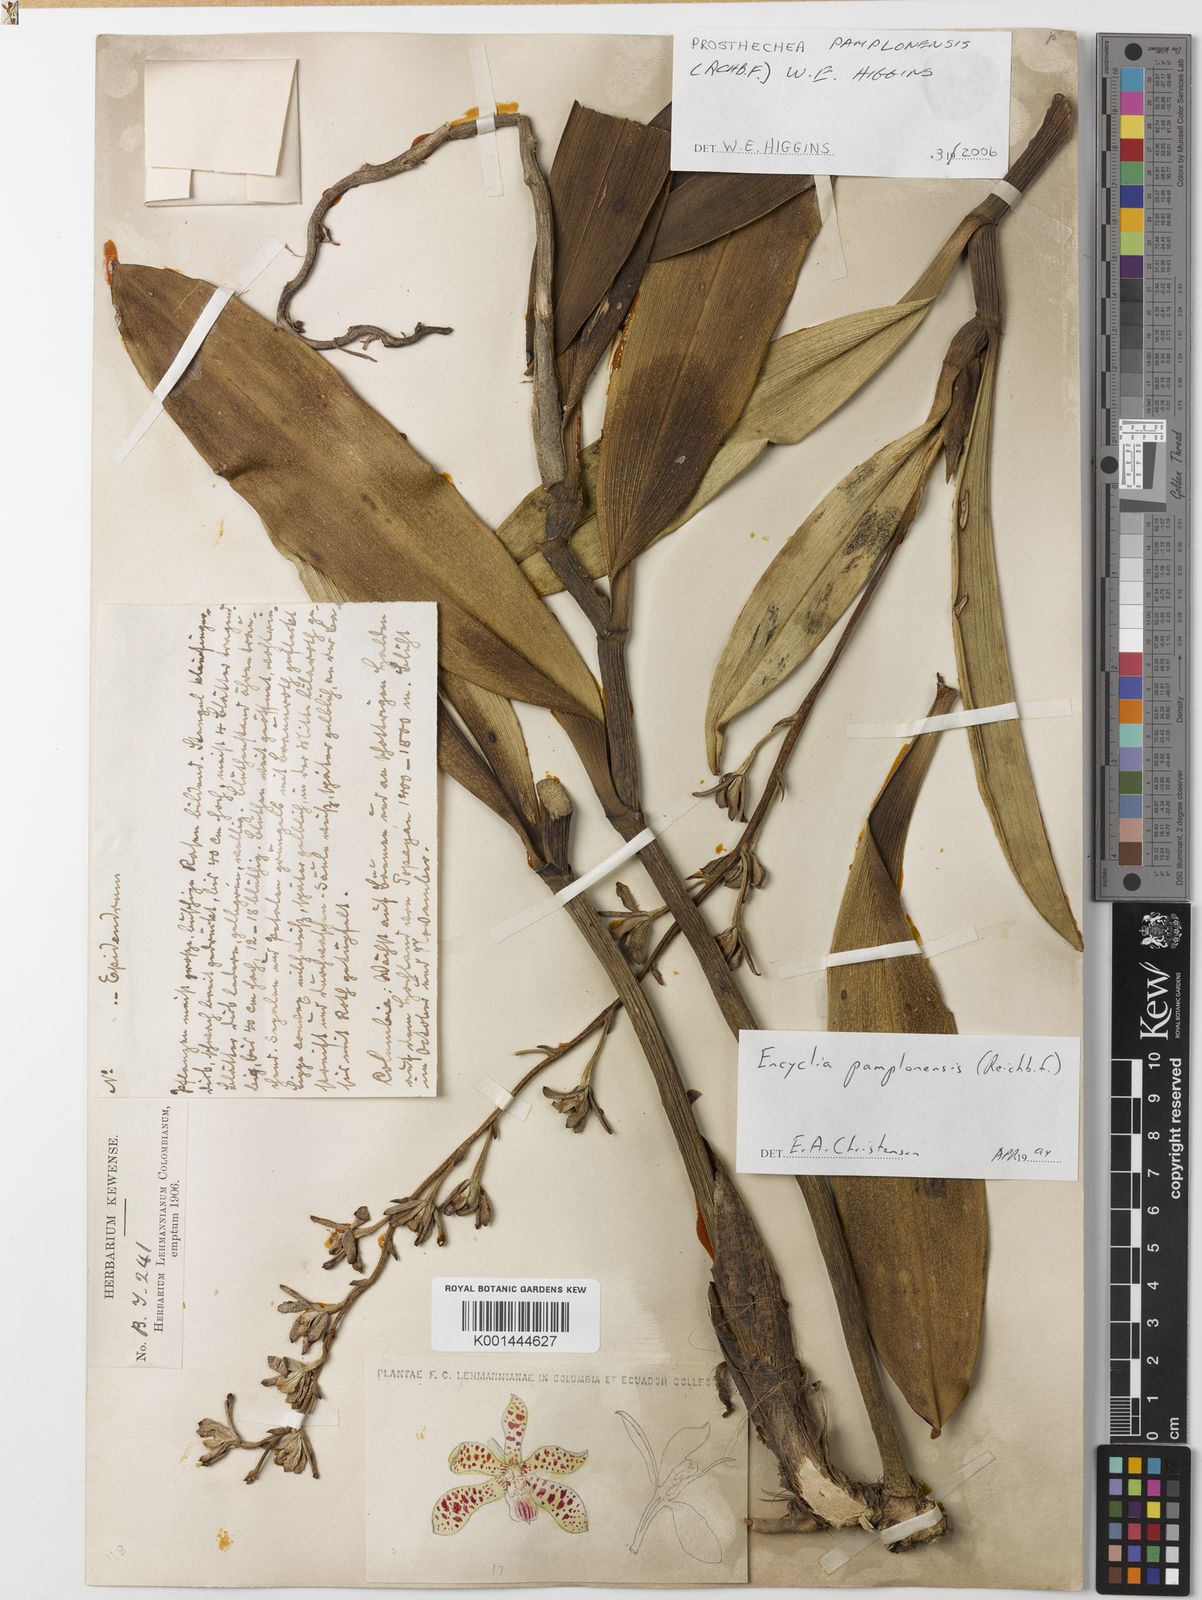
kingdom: Plantae
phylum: Tracheophyta
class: Liliopsida
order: Asparagales
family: Orchidaceae
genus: Prosthechea
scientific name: Prosthechea pamplonensis
